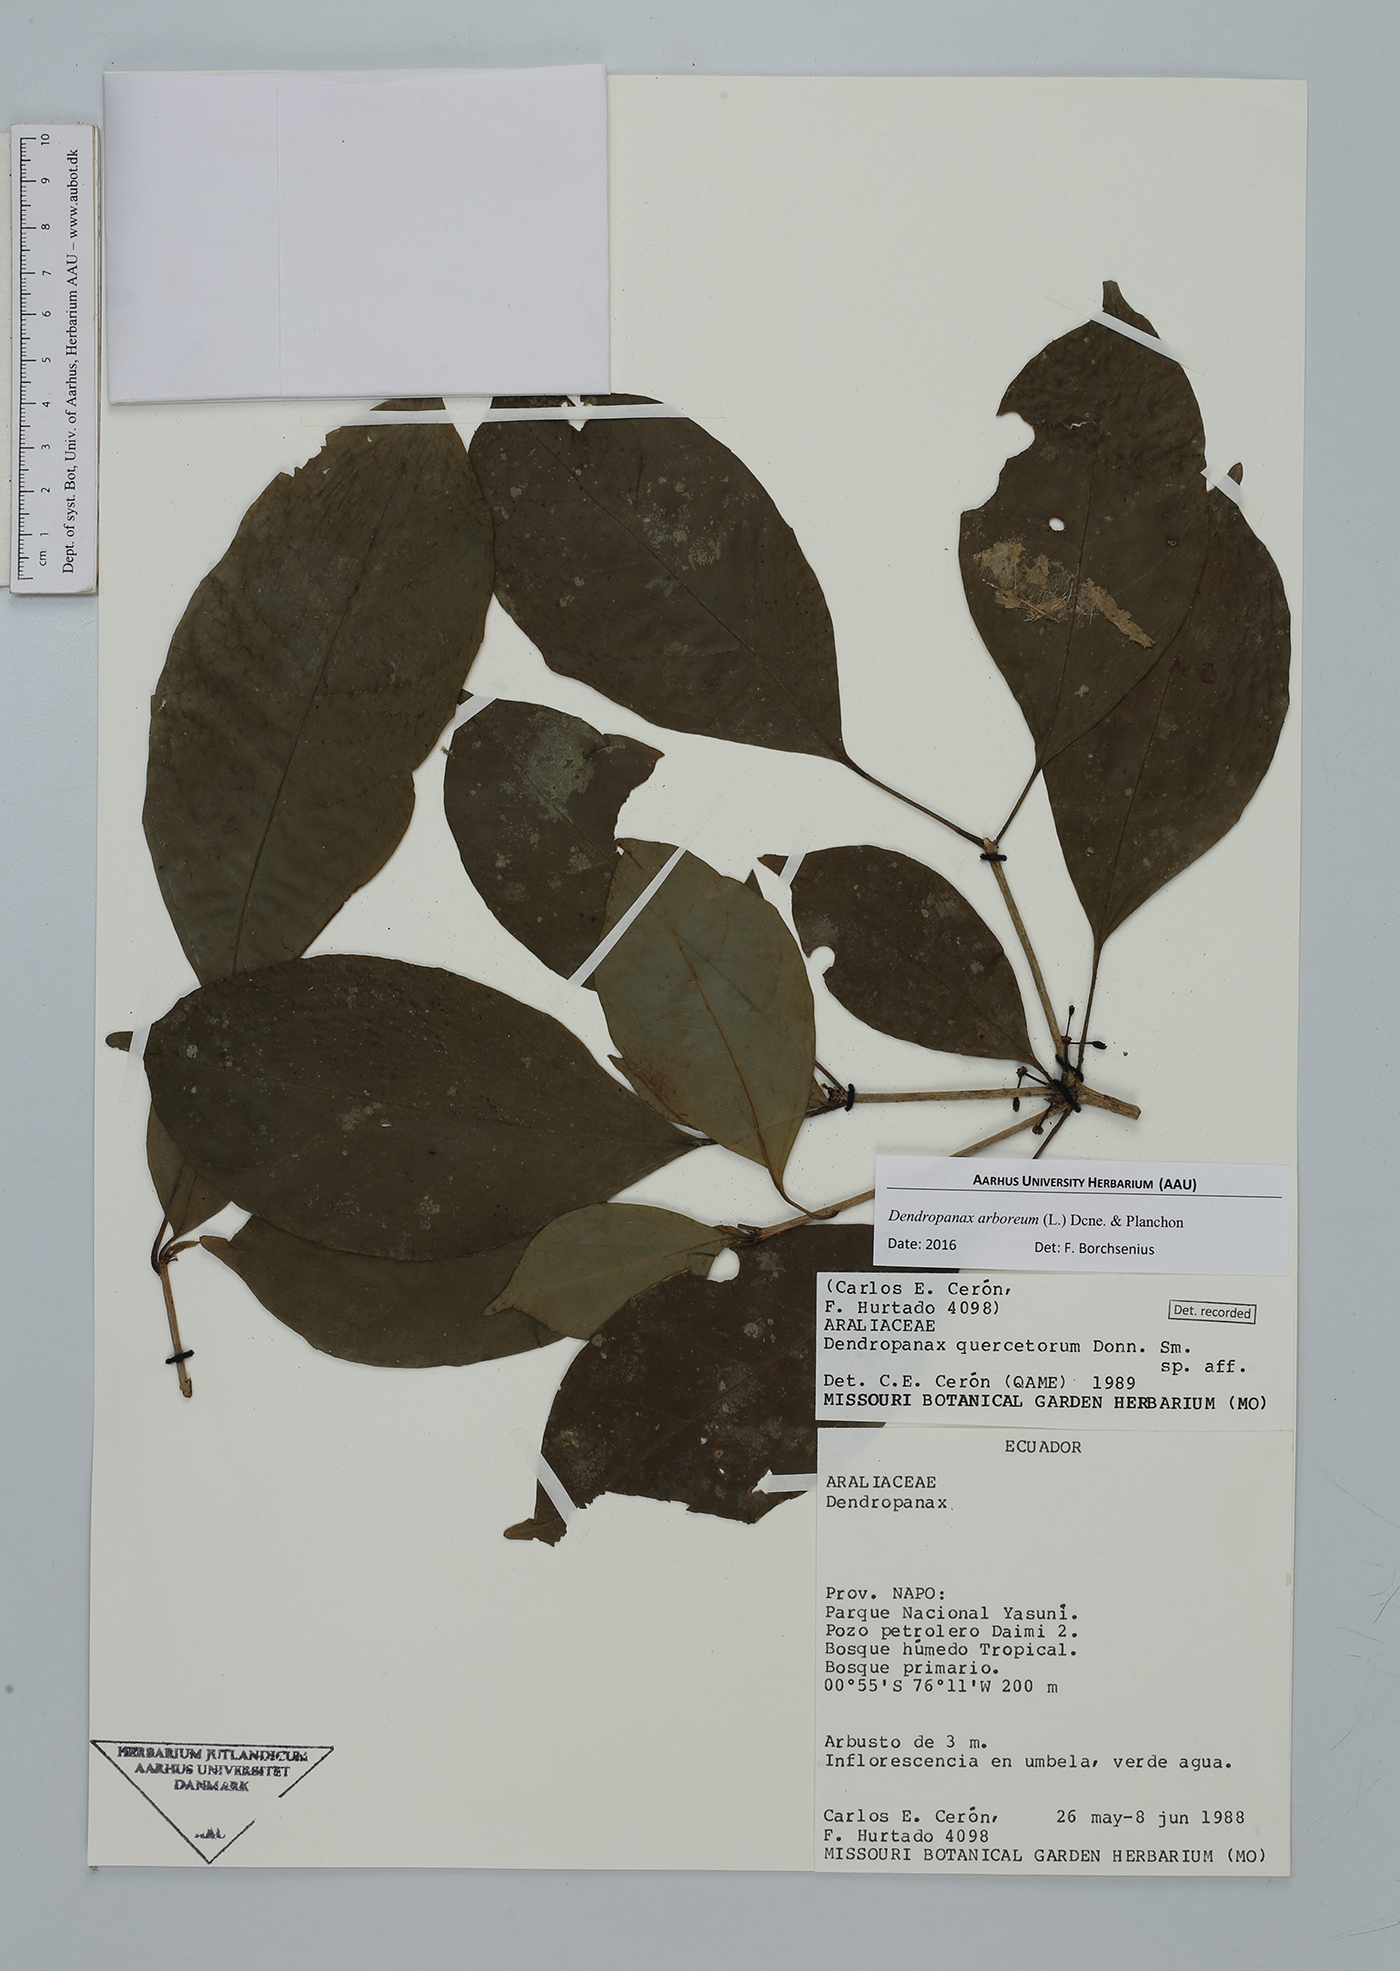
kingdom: Plantae
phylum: Tracheophyta
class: Magnoliopsida
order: Apiales
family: Araliaceae
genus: Dendropanax
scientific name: Dendropanax arboreus
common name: Potato-wood
